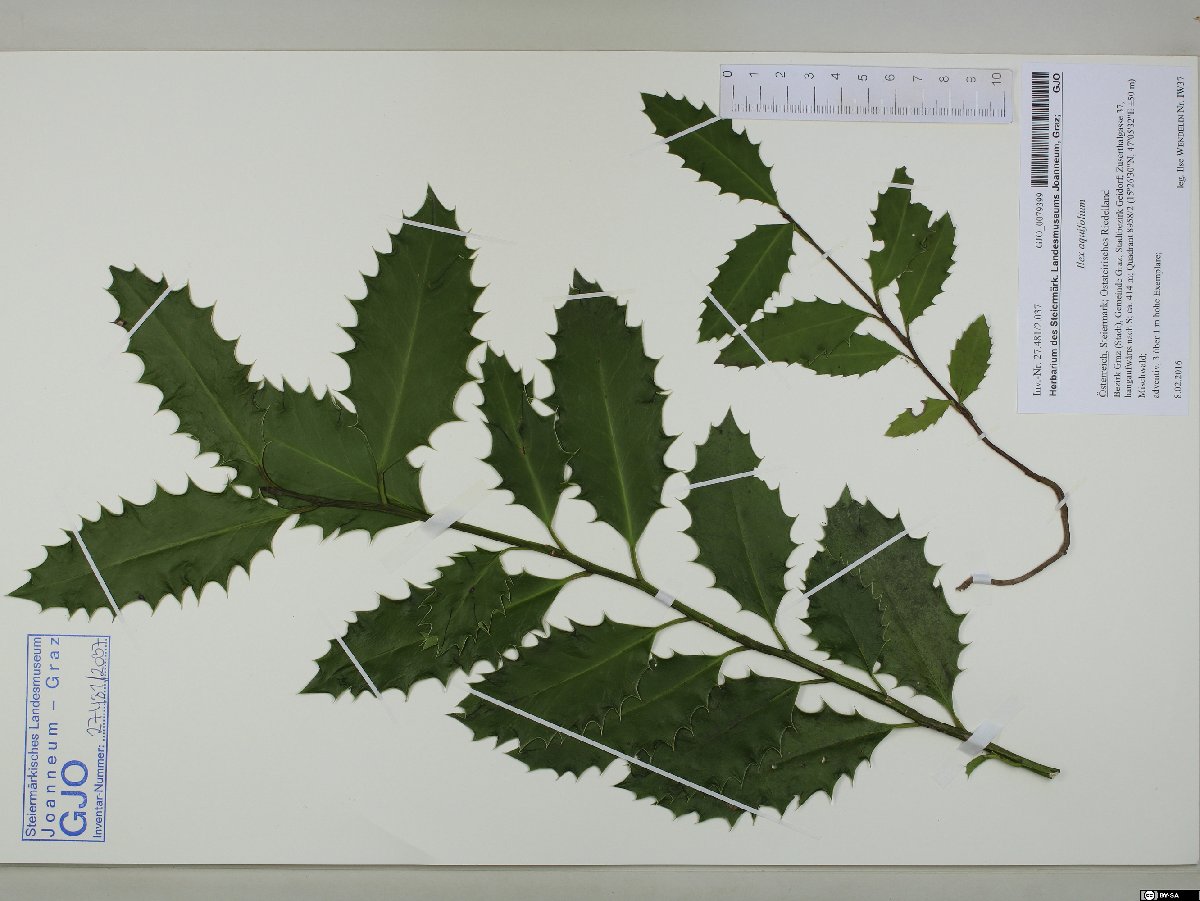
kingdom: Plantae
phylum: Tracheophyta
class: Magnoliopsida
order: Aquifoliales
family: Aquifoliaceae
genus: Ilex
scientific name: Ilex aquifolium
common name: English holly
